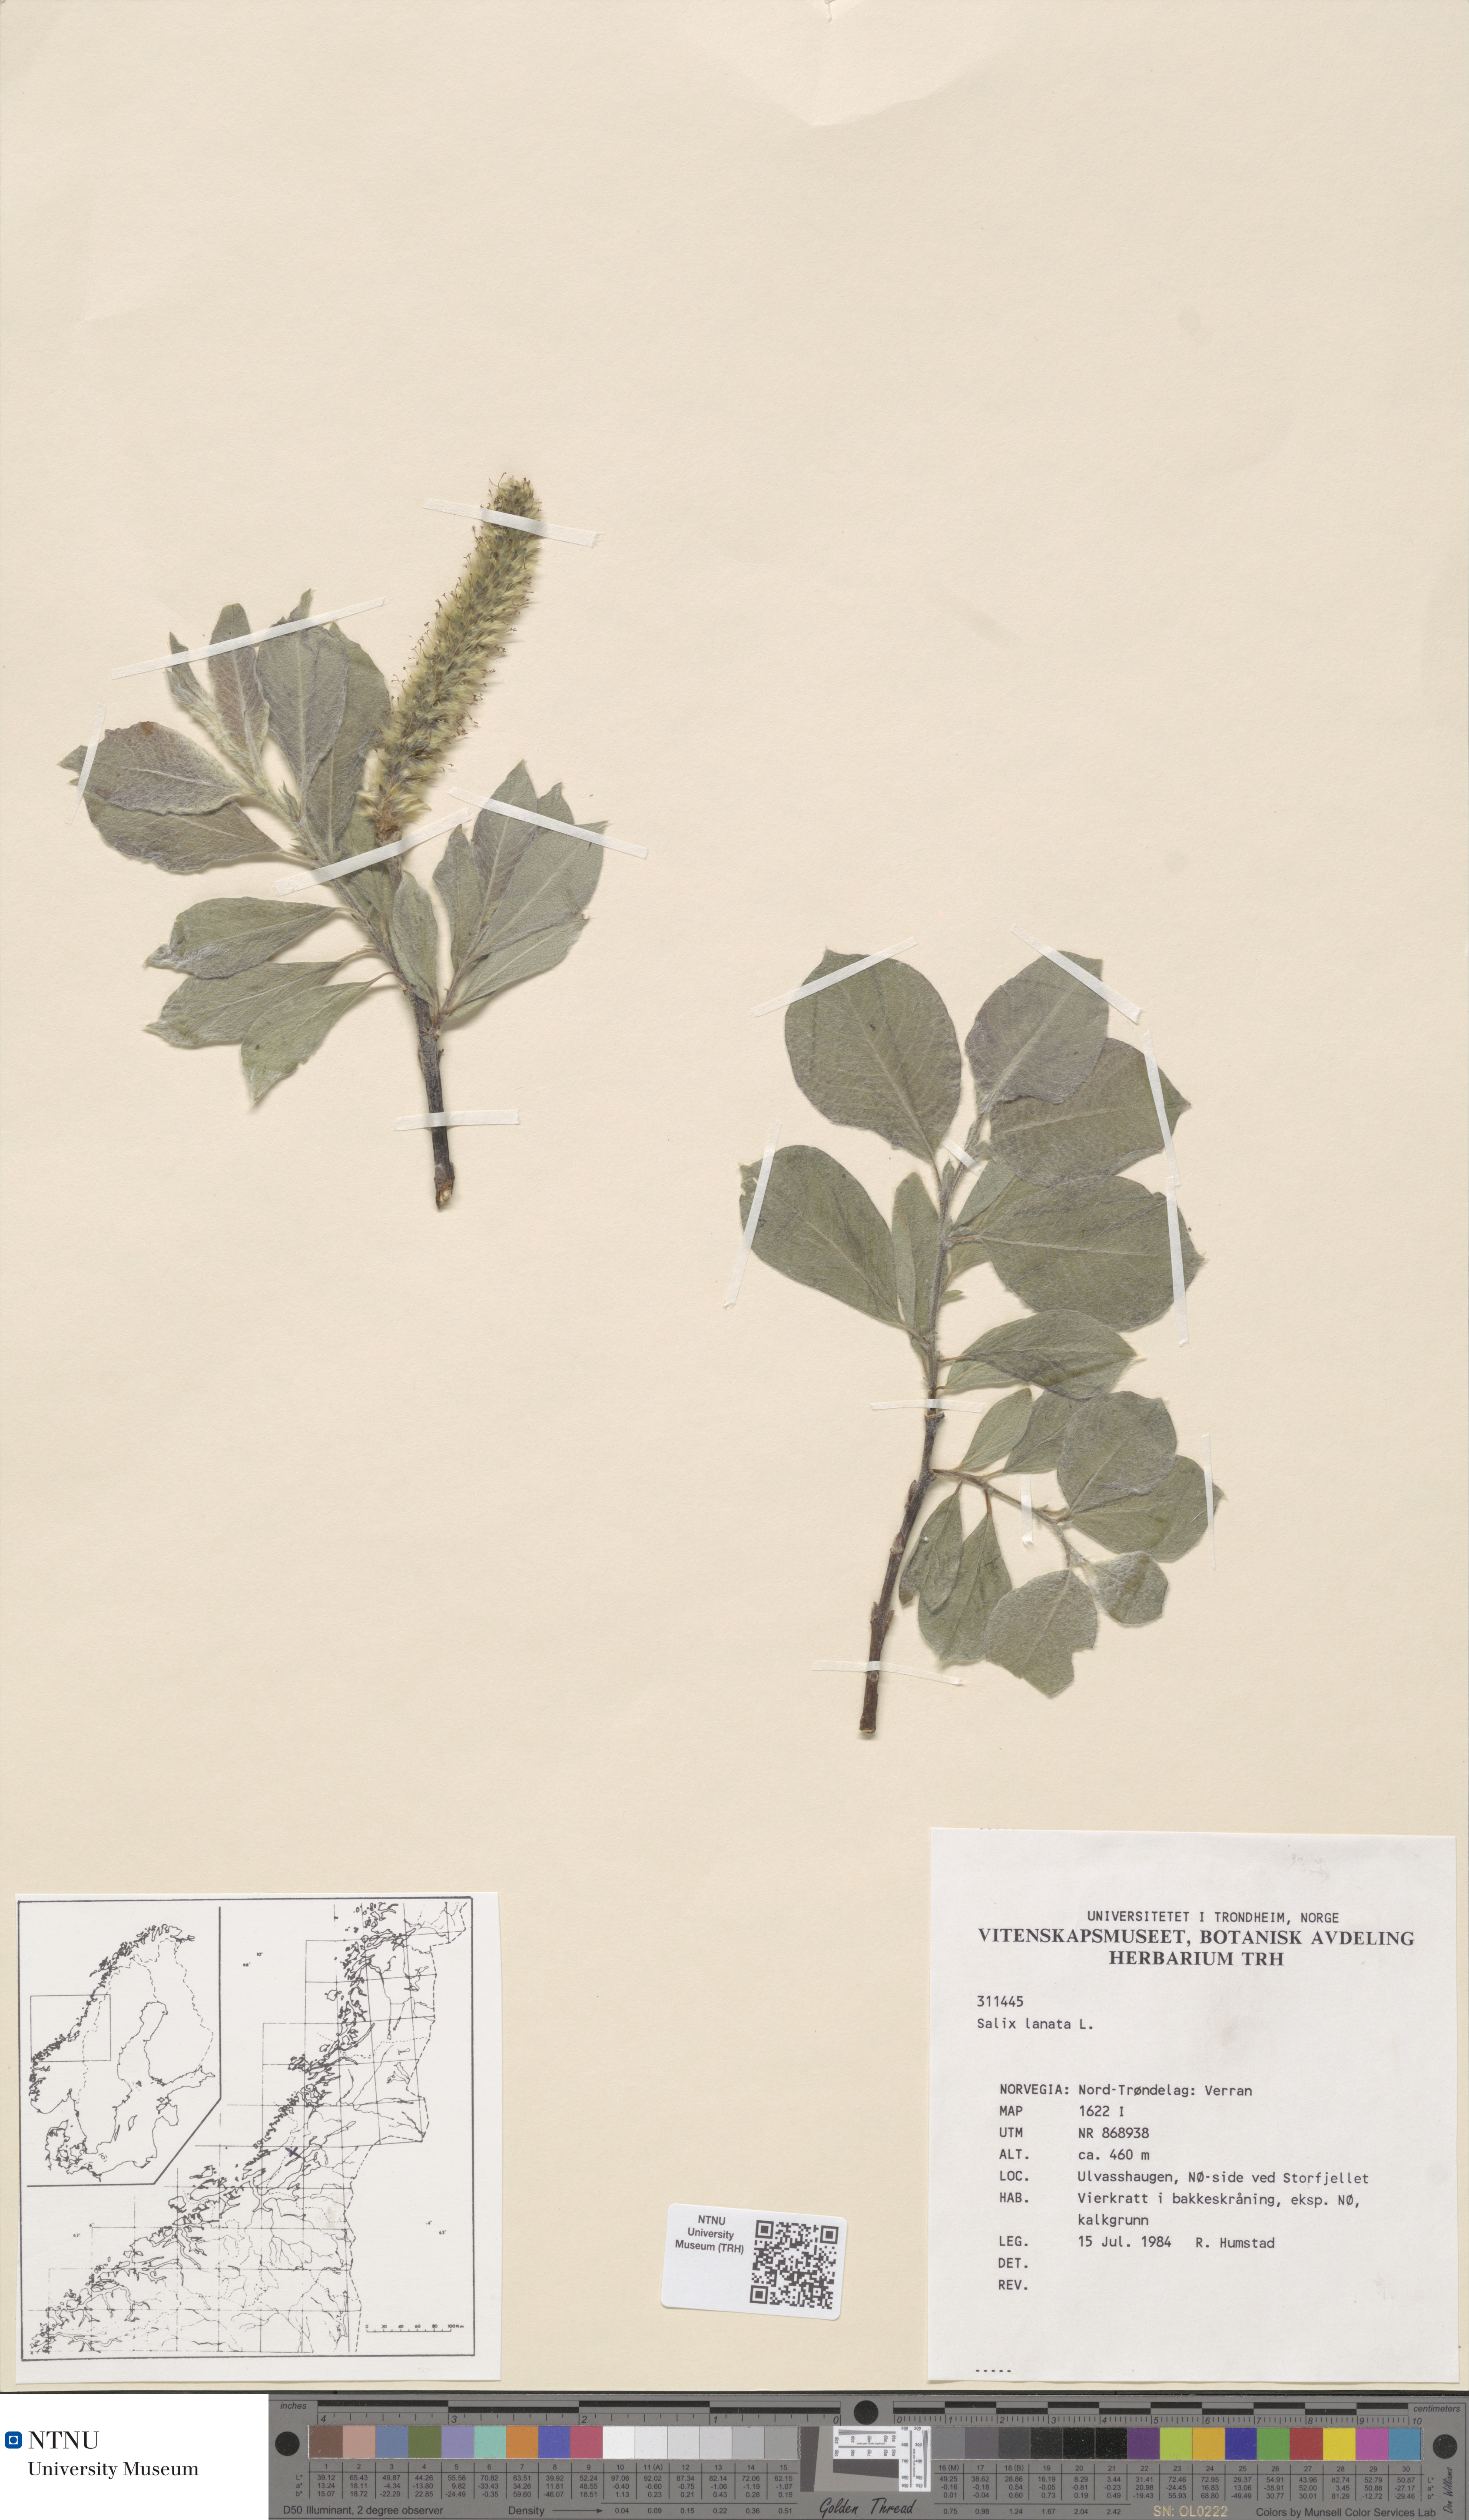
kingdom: Plantae
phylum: Tracheophyta
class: Magnoliopsida
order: Malpighiales
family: Salicaceae
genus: Salix
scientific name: Salix lanata
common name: Woolly willow
